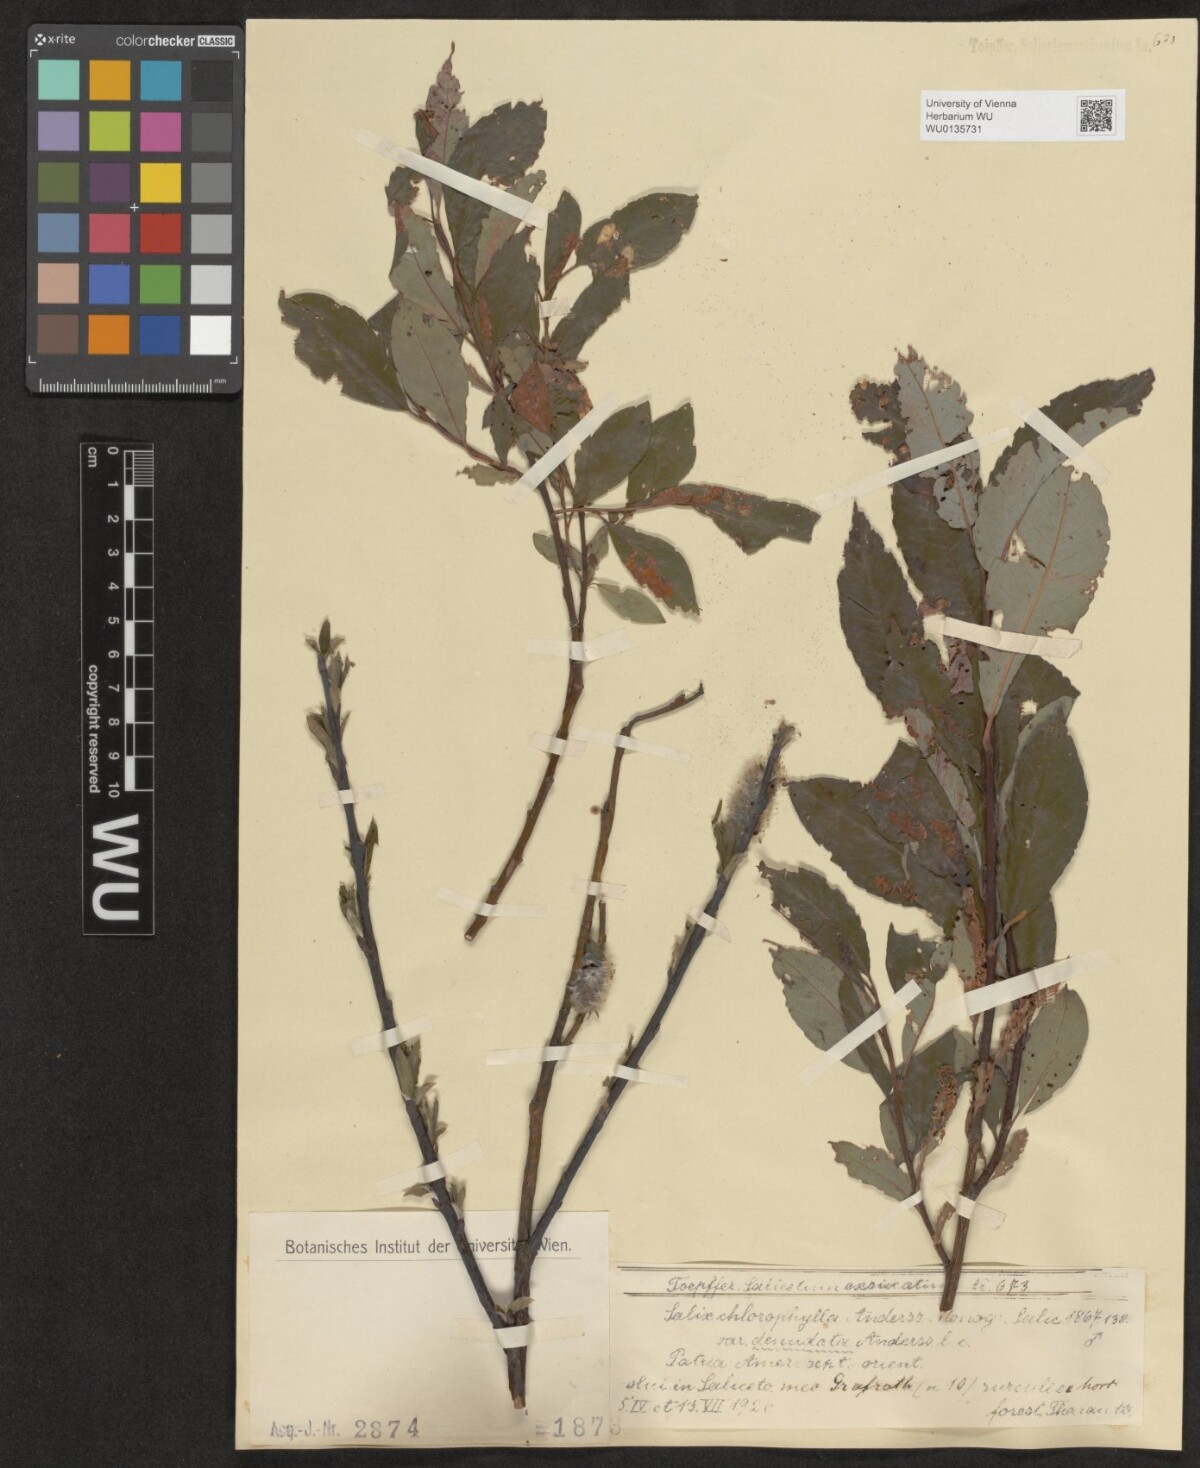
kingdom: Plantae
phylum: Tracheophyta
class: Magnoliopsida
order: Malpighiales
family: Salicaceae
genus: Salix
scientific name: Salix planifolia
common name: Mountain willow
